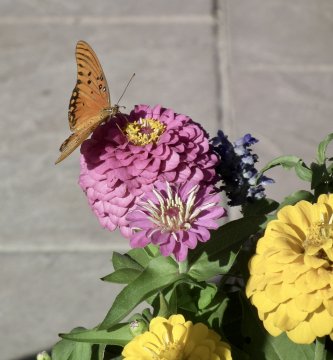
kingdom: Animalia
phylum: Arthropoda
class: Insecta
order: Lepidoptera
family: Nymphalidae
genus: Dione
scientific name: Dione vanillae
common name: Gulf Fritillary
